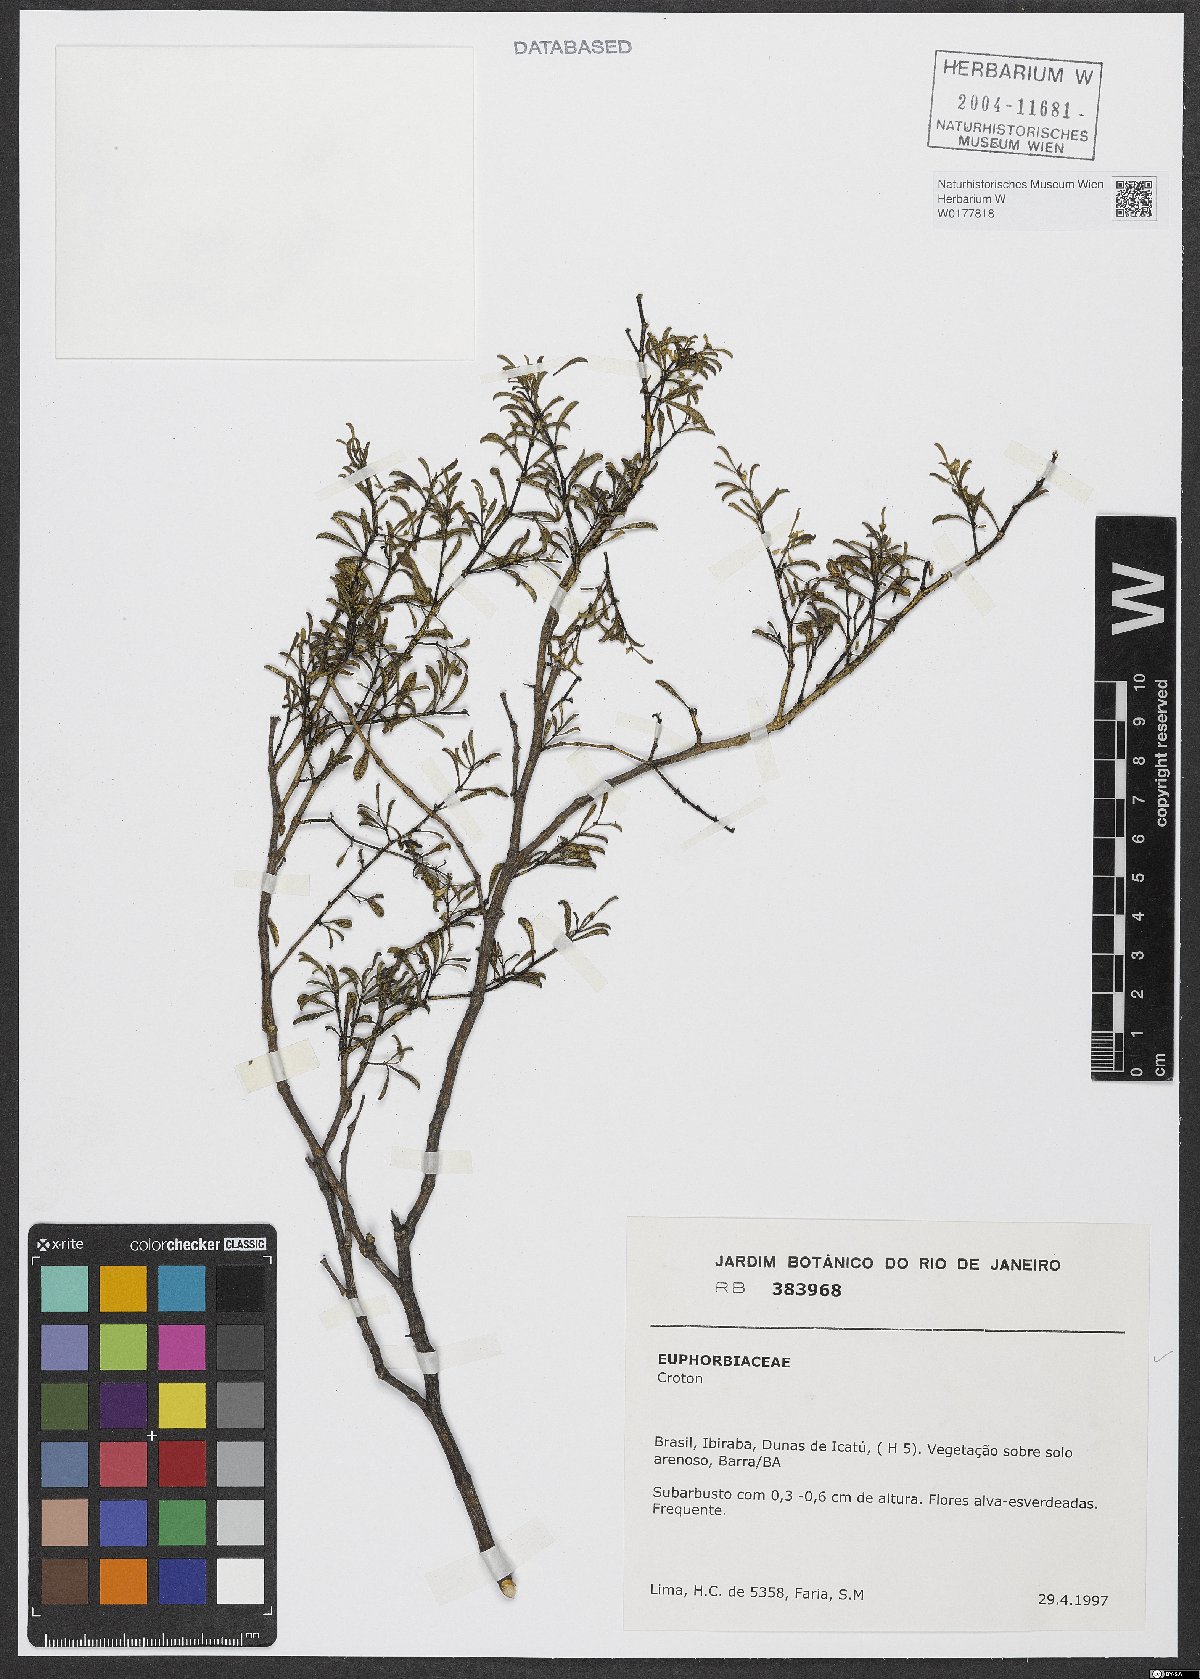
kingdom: Plantae
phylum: Tracheophyta
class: Magnoliopsida
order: Malpighiales
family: Euphorbiaceae
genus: Croton
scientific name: Croton
